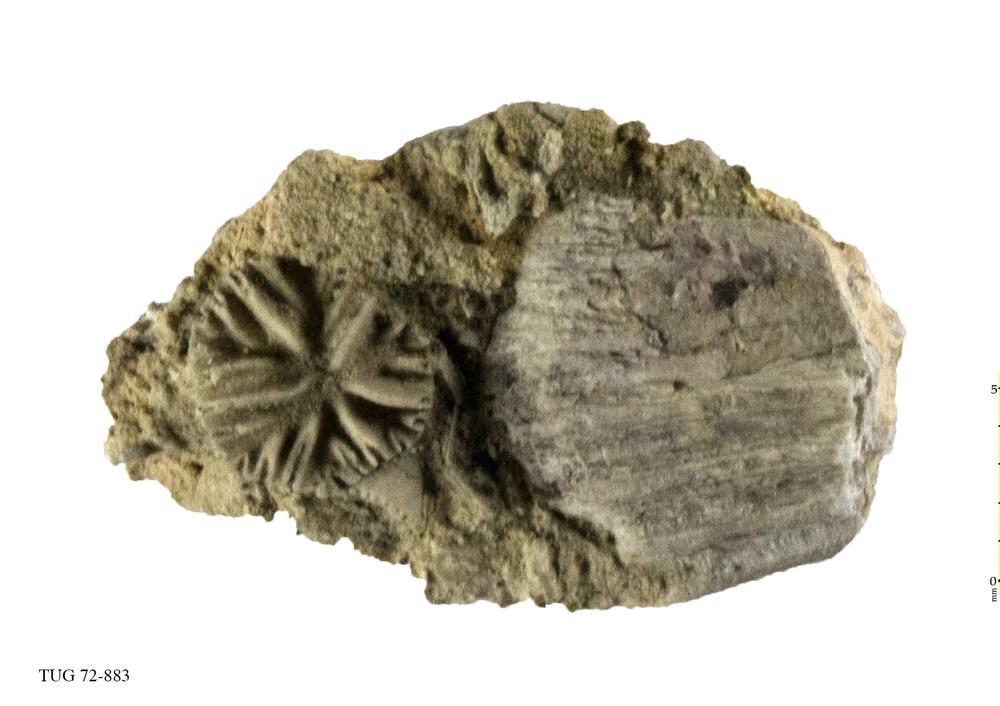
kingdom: Animalia
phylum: Echinodermata
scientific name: Echinodermata
